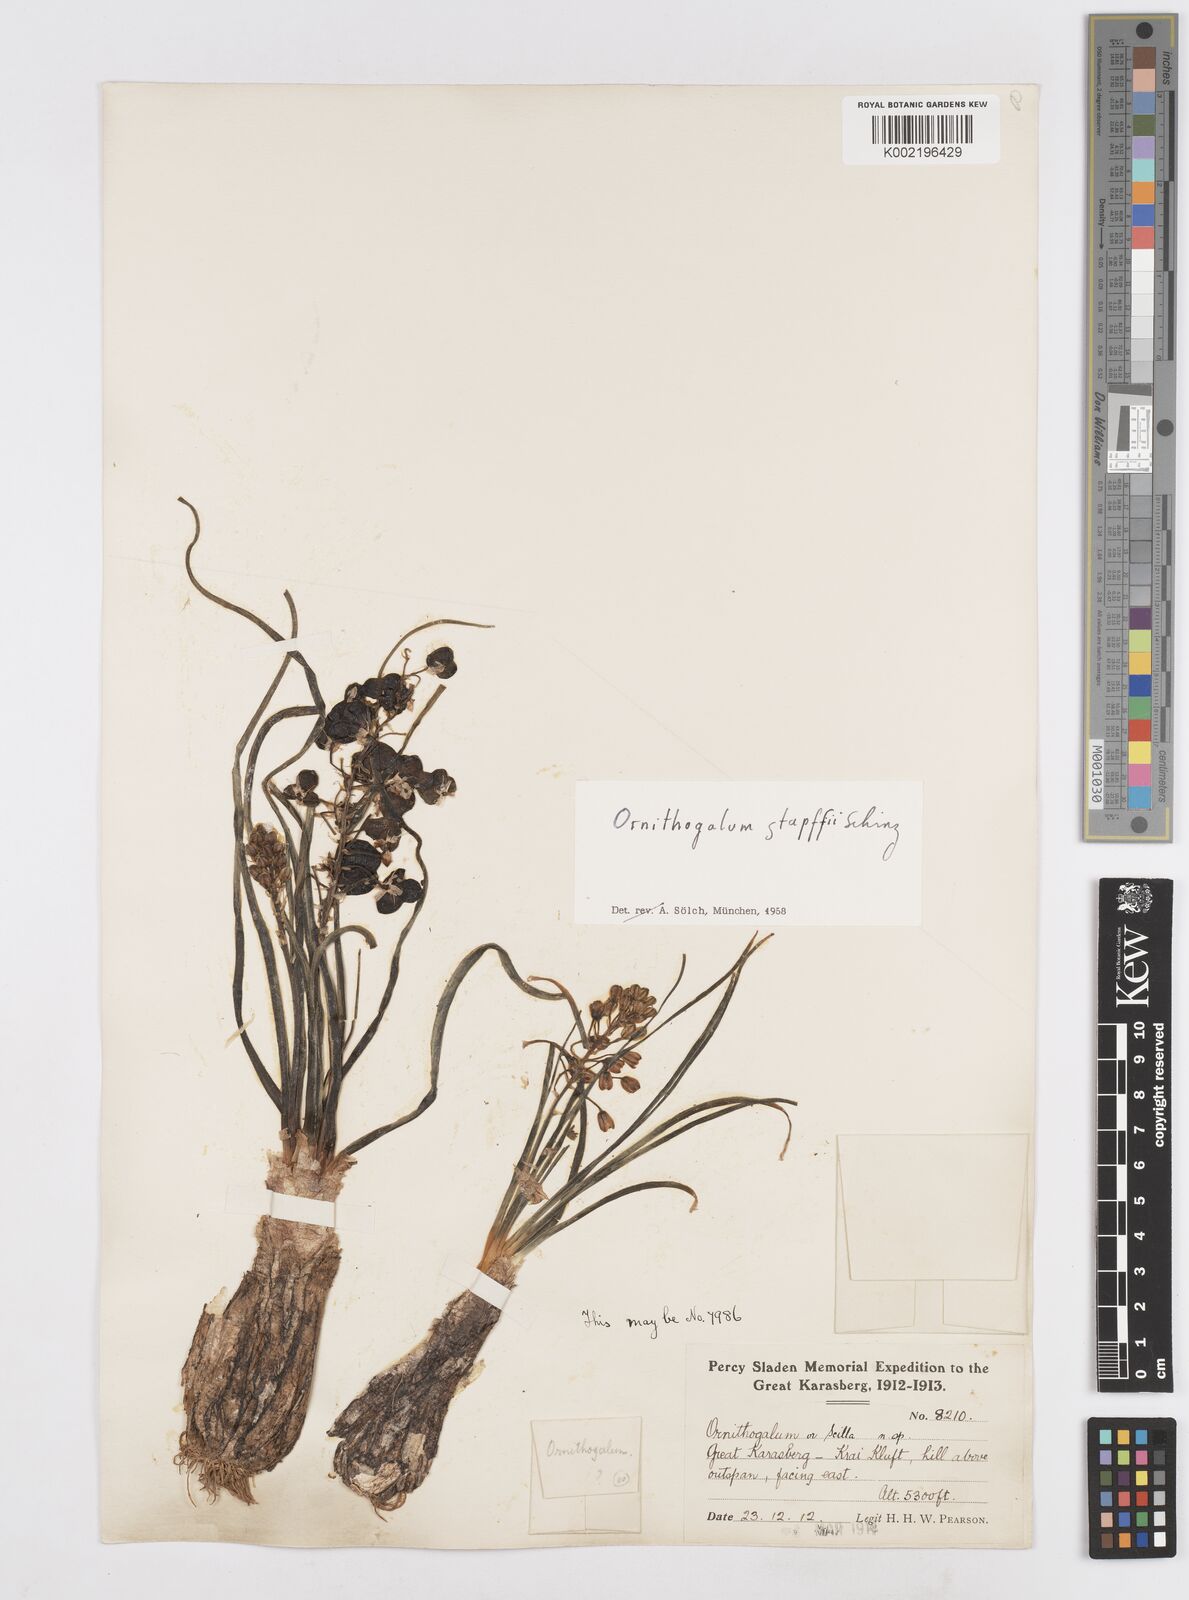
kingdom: Plantae
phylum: Tracheophyta
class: Liliopsida
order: Asparagales
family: Asparagaceae
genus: Albuca
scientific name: Albuca stapffii
